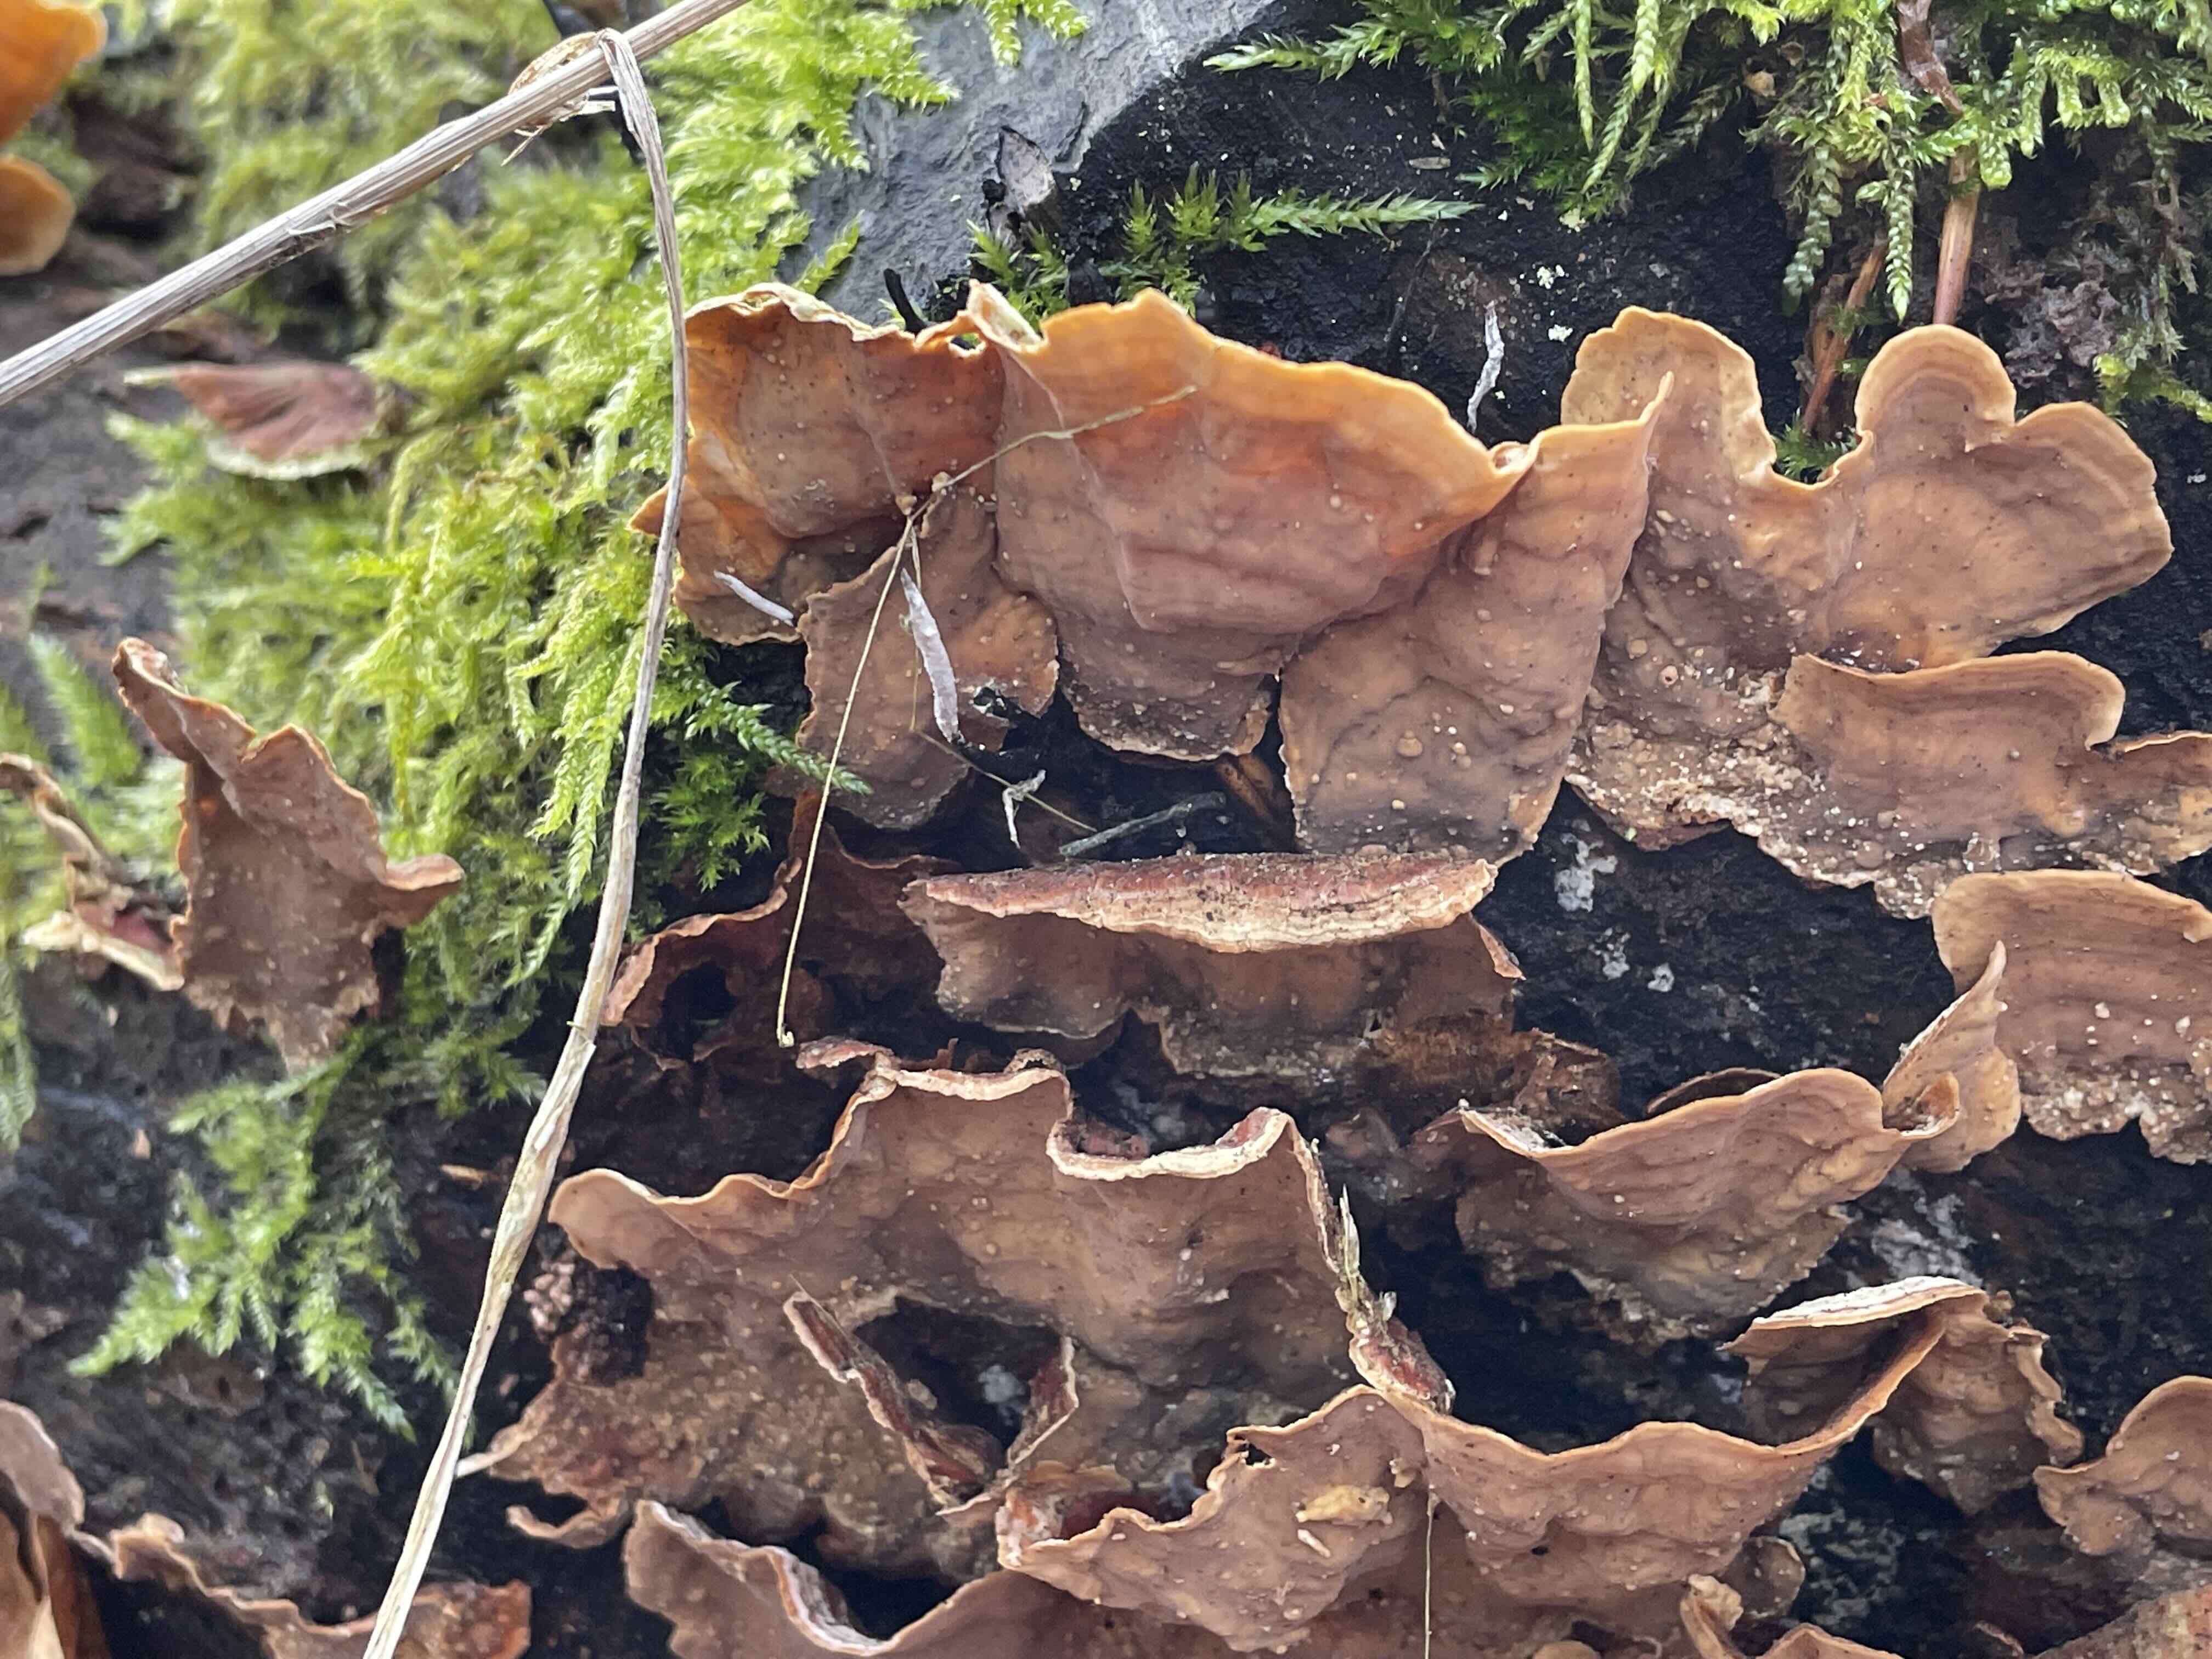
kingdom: Fungi
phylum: Basidiomycota
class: Agaricomycetes
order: Russulales
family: Stereaceae
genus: Stereum
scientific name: Stereum subtomentosum
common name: smuk lædersvamp
